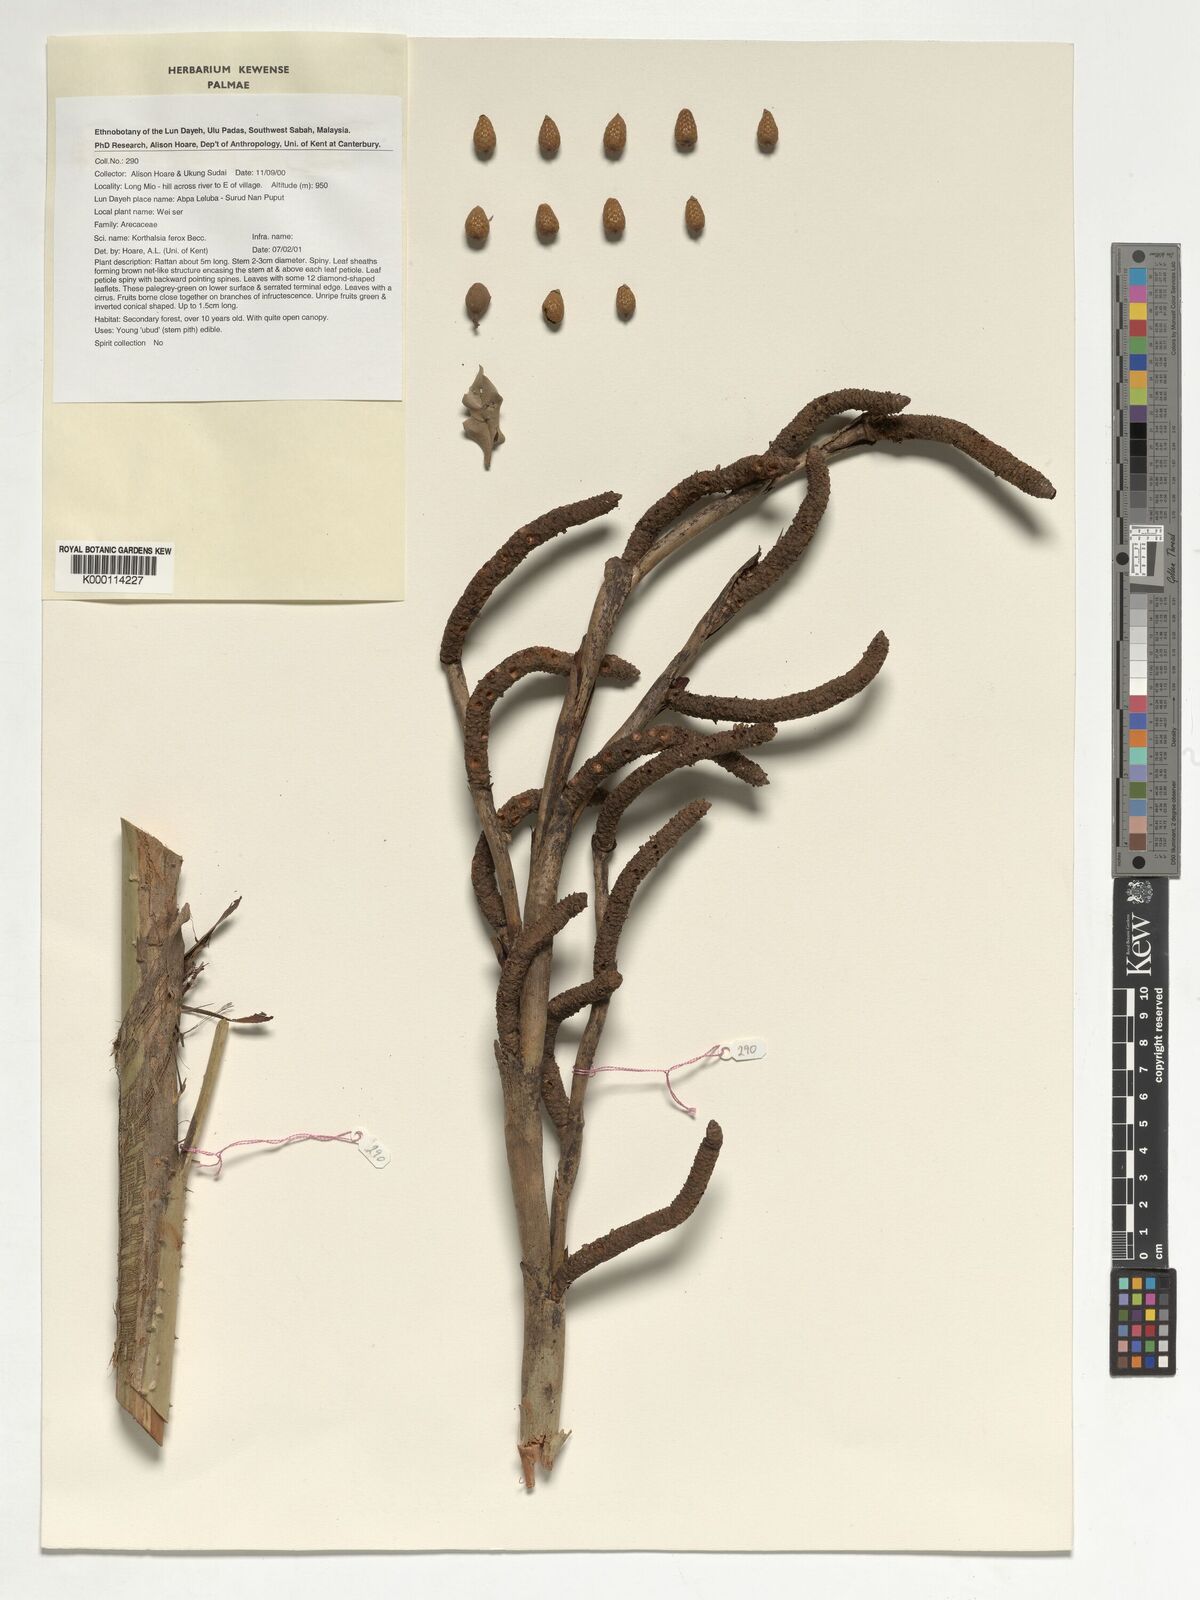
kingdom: Plantae
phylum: Tracheophyta
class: Liliopsida
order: Arecales
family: Arecaceae
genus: Korthalsia
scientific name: Korthalsia ferox
